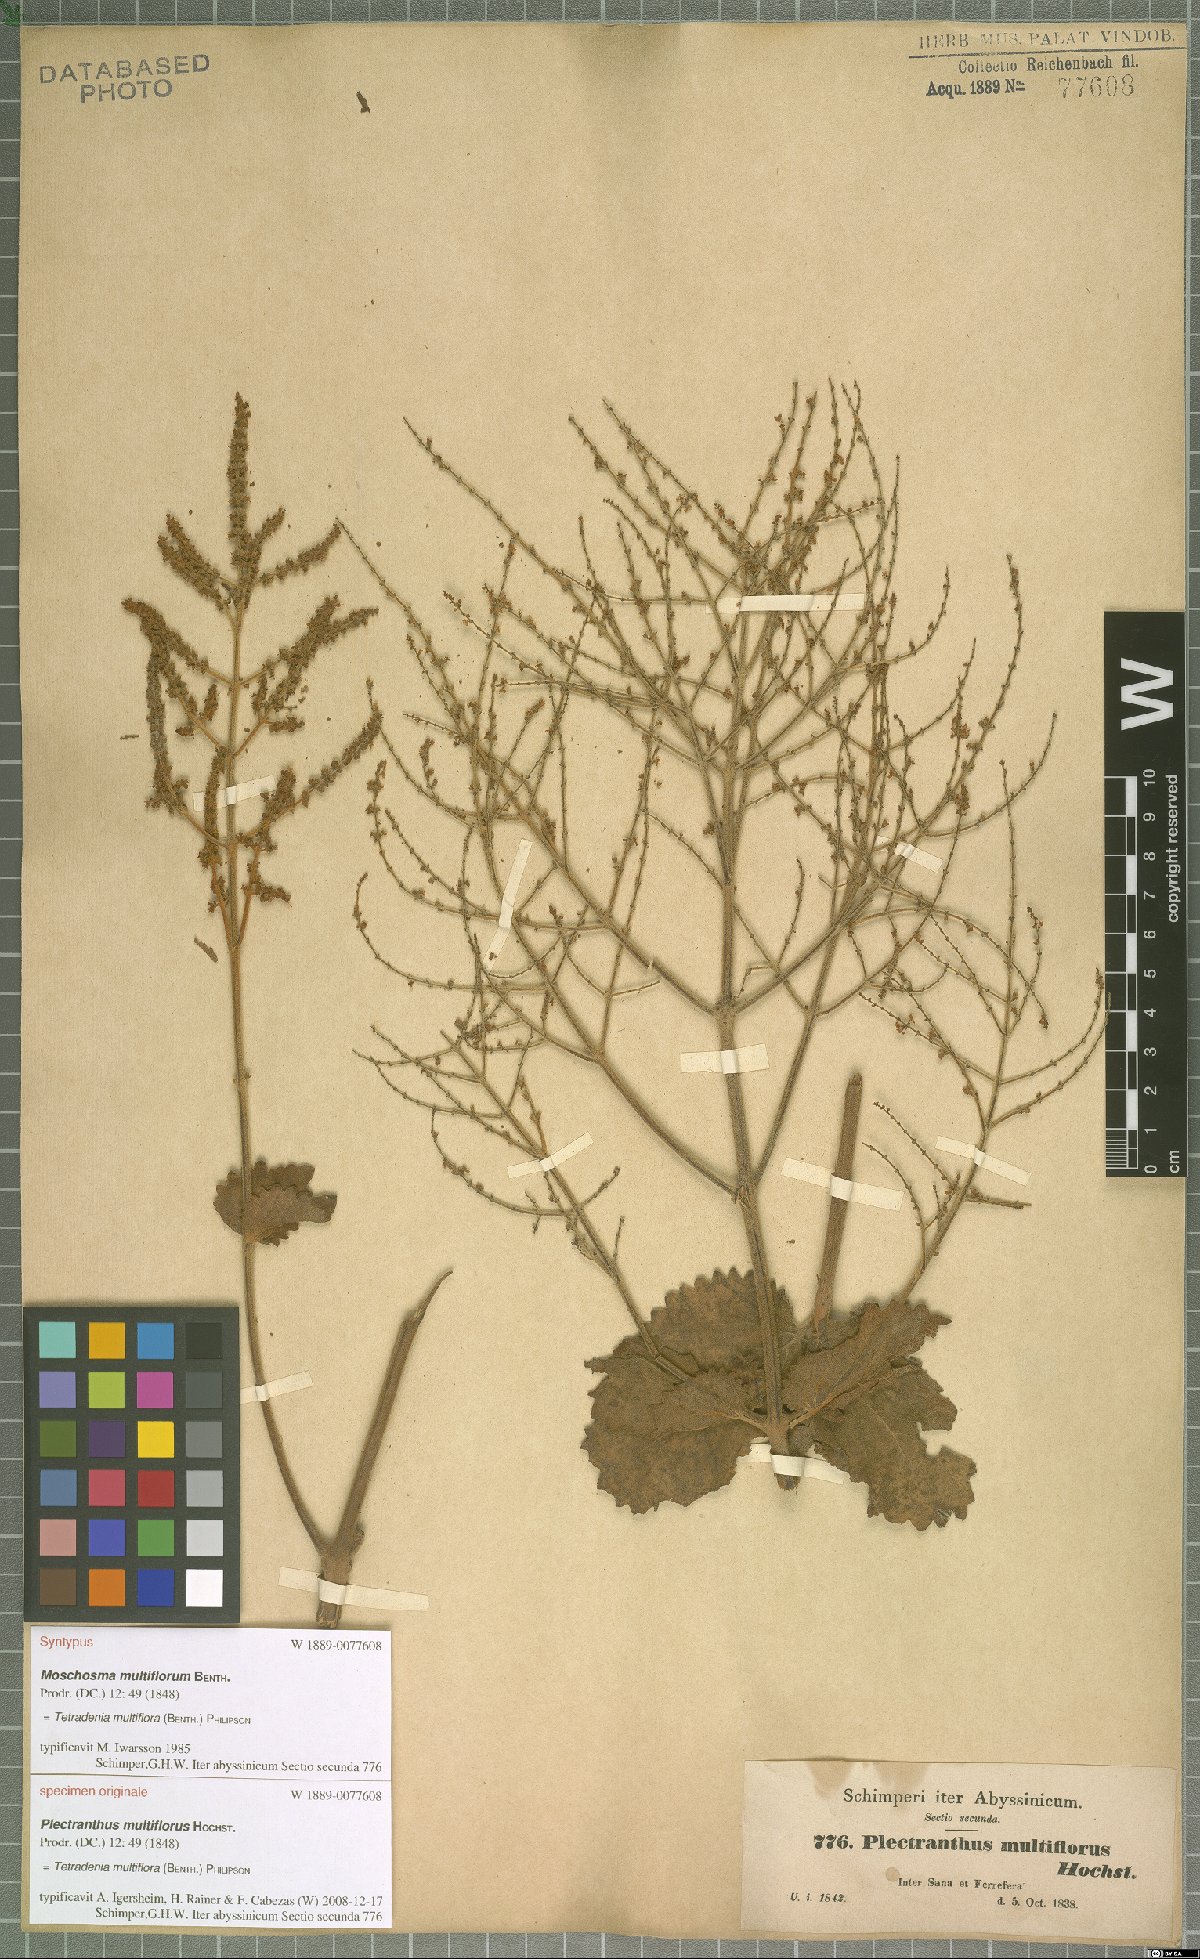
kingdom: Plantae
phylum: Tracheophyta
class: Magnoliopsida
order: Lamiales
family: Lamiaceae
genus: Tetradenia
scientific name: Tetradenia multiflora
